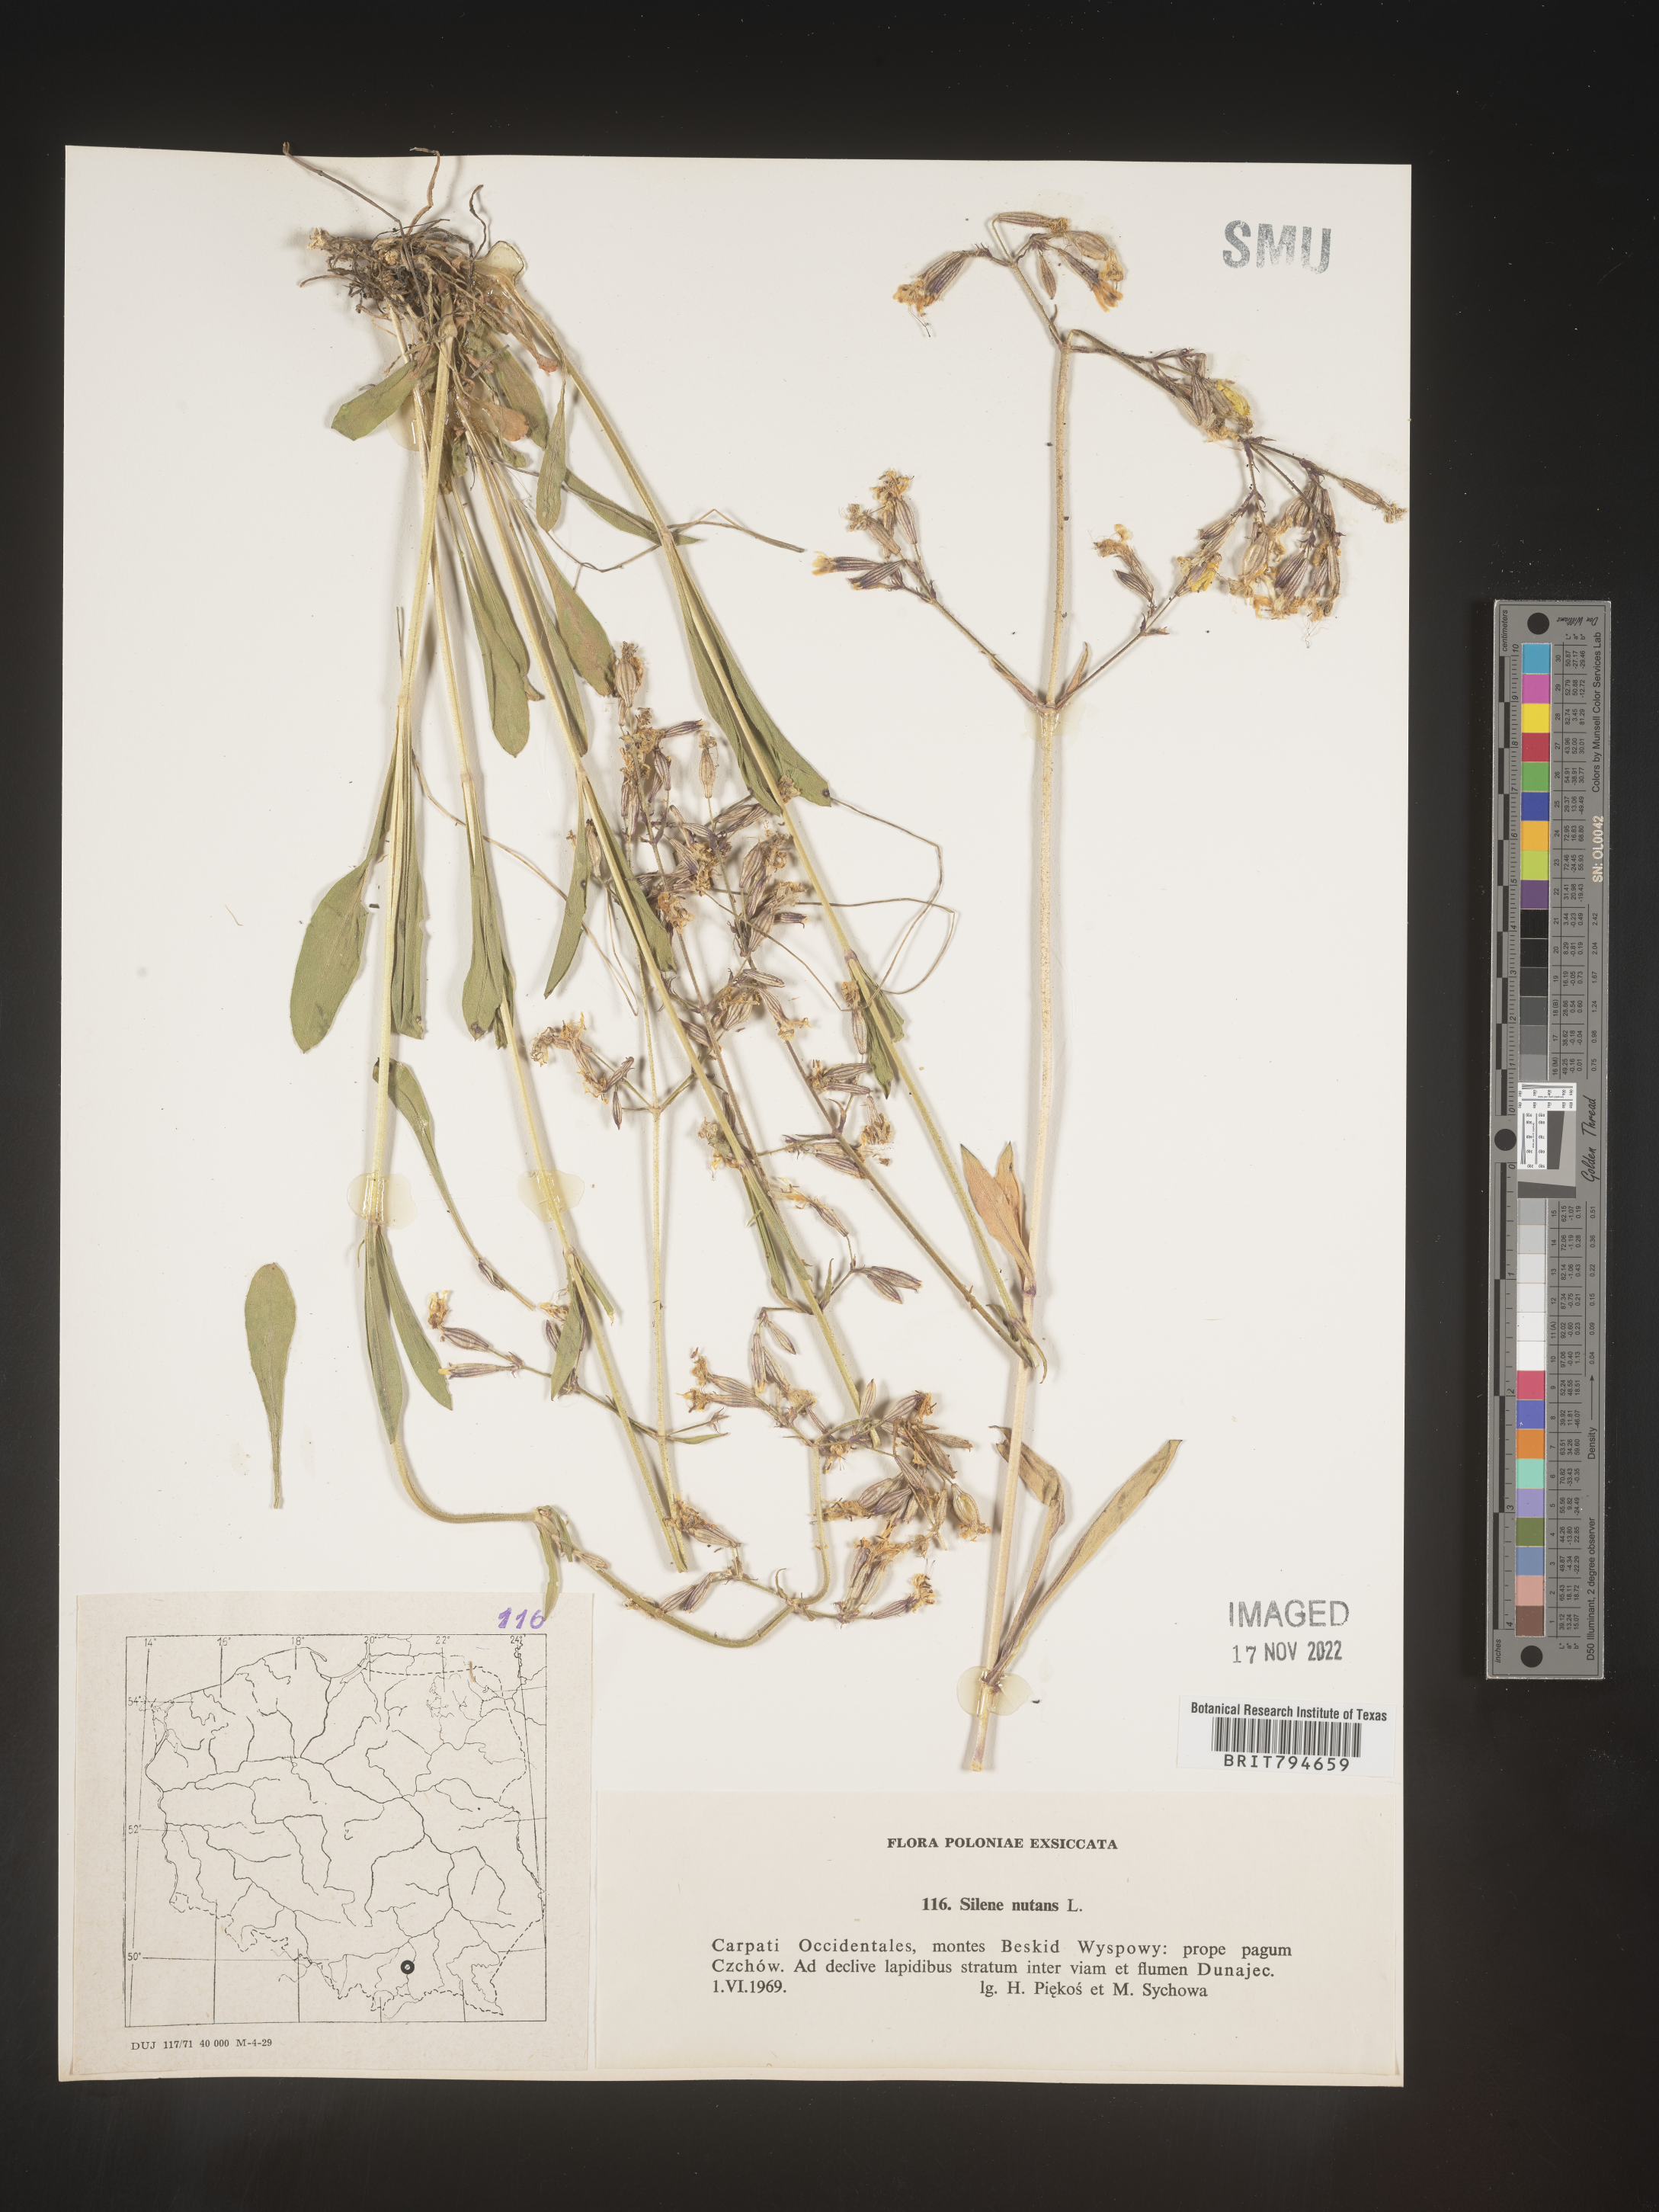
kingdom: Plantae
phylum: Tracheophyta
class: Magnoliopsida
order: Caryophyllales
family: Caryophyllaceae
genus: Silene
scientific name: Silene nutans
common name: Nottingham catchfly
